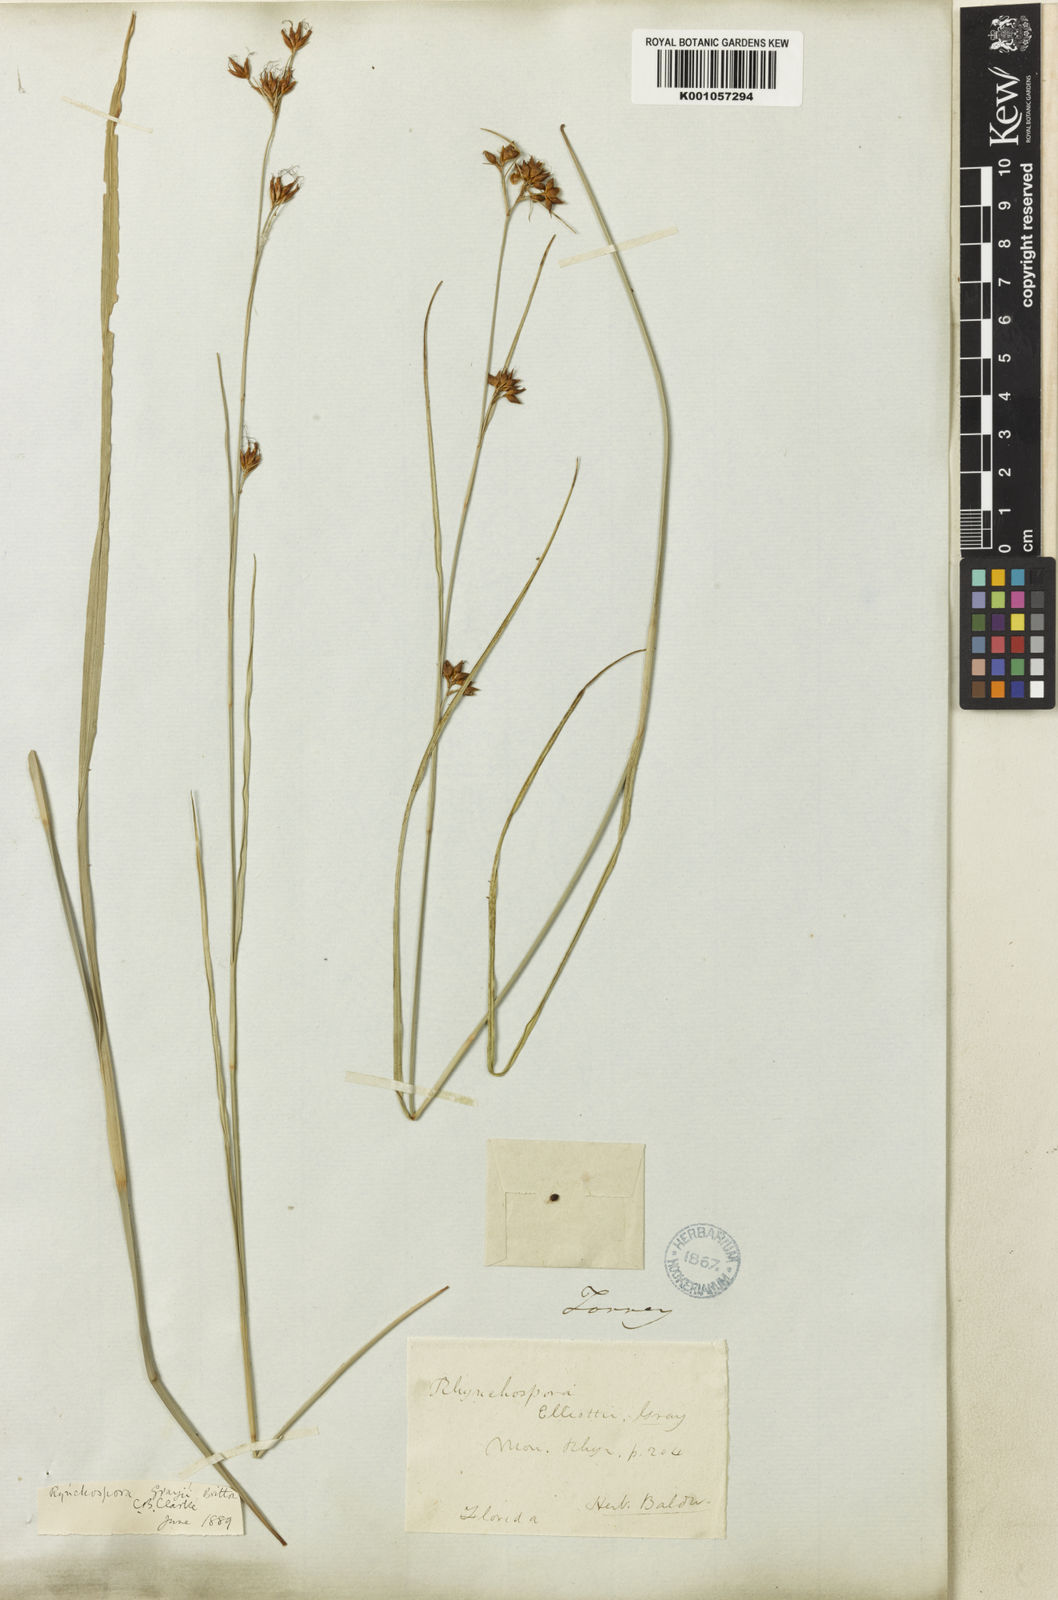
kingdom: Plantae
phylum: Tracheophyta
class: Liliopsida
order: Poales
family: Cyperaceae
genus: Rhynchospora
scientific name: Rhynchospora
